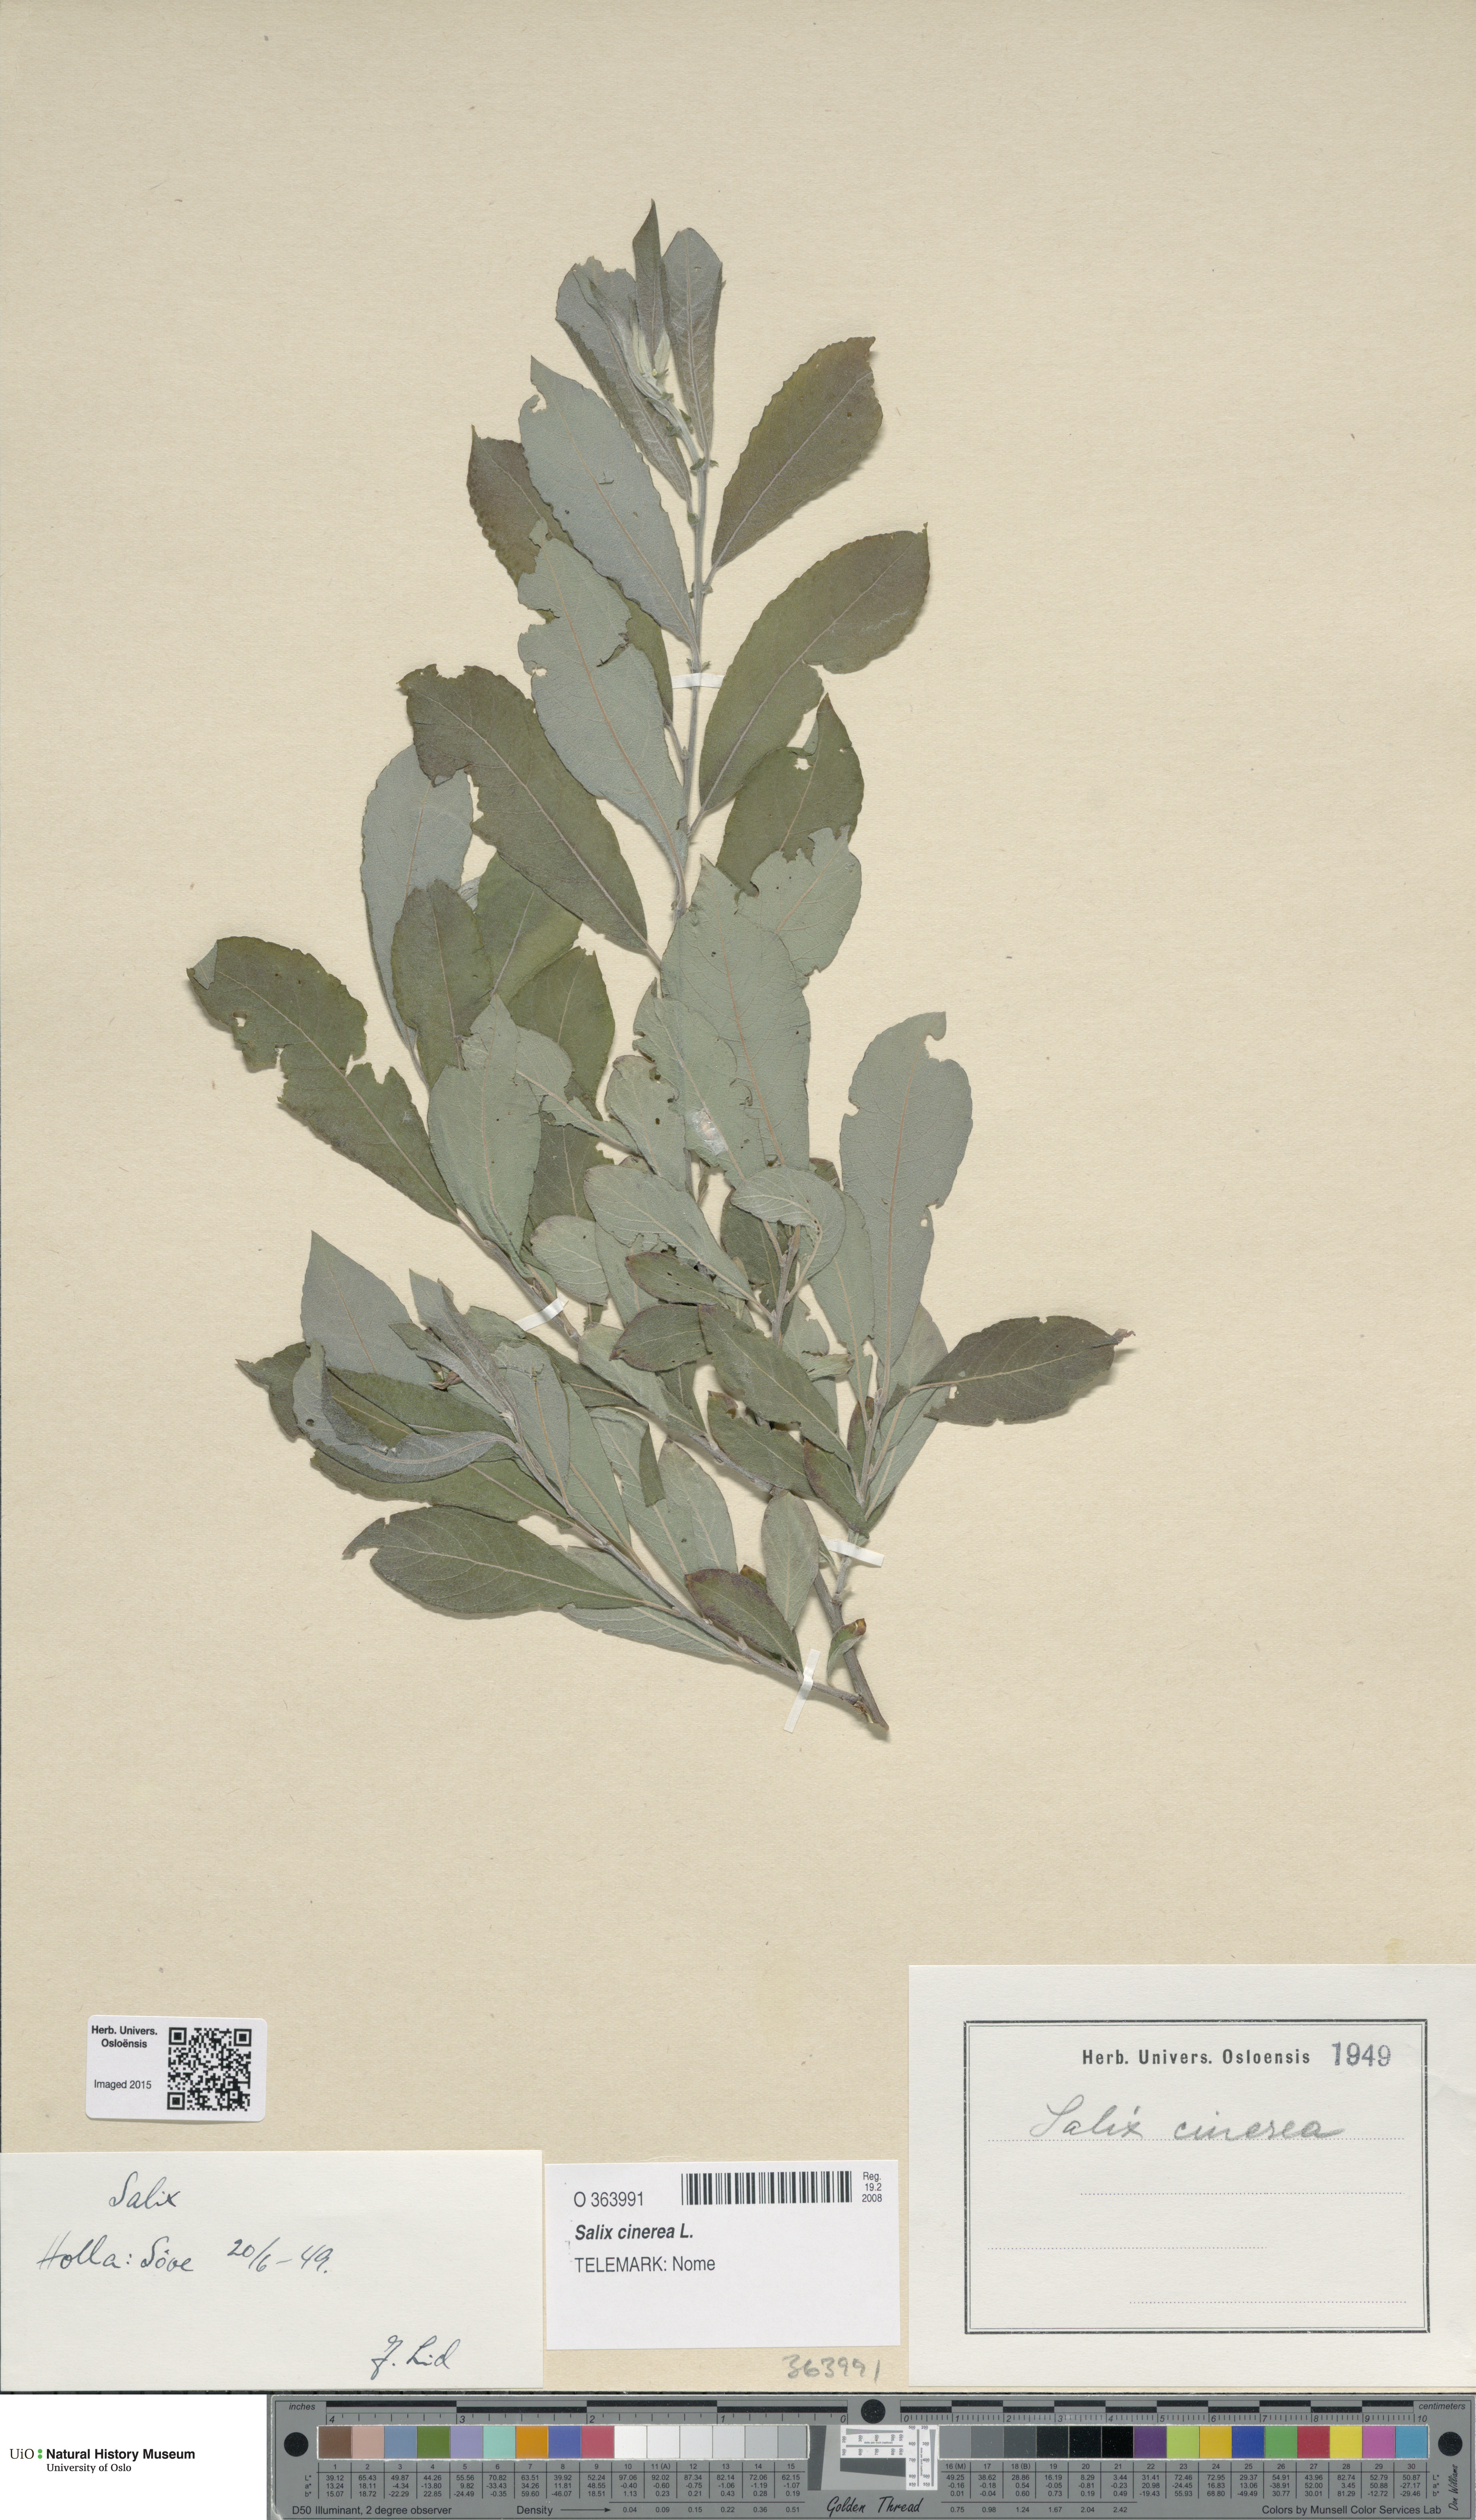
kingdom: Plantae
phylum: Tracheophyta
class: Magnoliopsida
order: Malpighiales
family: Salicaceae
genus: Salix
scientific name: Salix cinerea
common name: Common sallow
